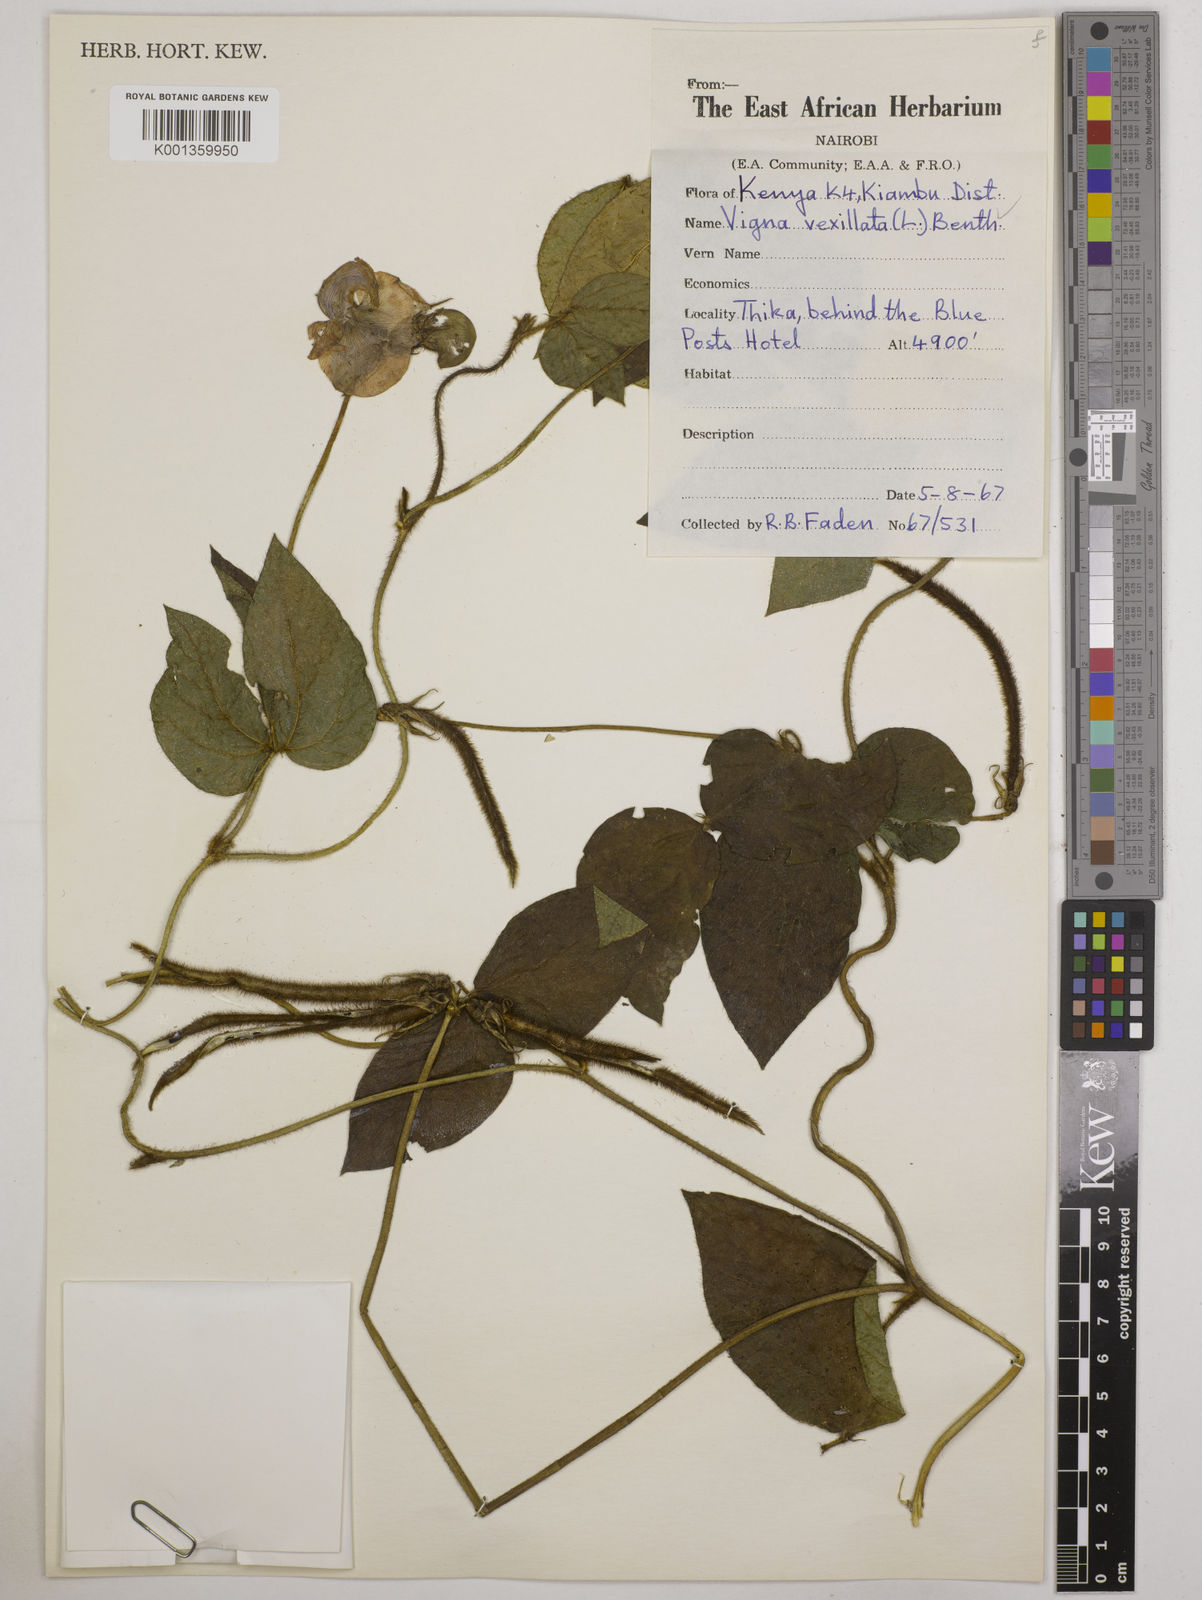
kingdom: Plantae
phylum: Tracheophyta
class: Magnoliopsida
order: Fabales
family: Fabaceae
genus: Vigna
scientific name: Vigna vexillata
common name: Zombi pea
